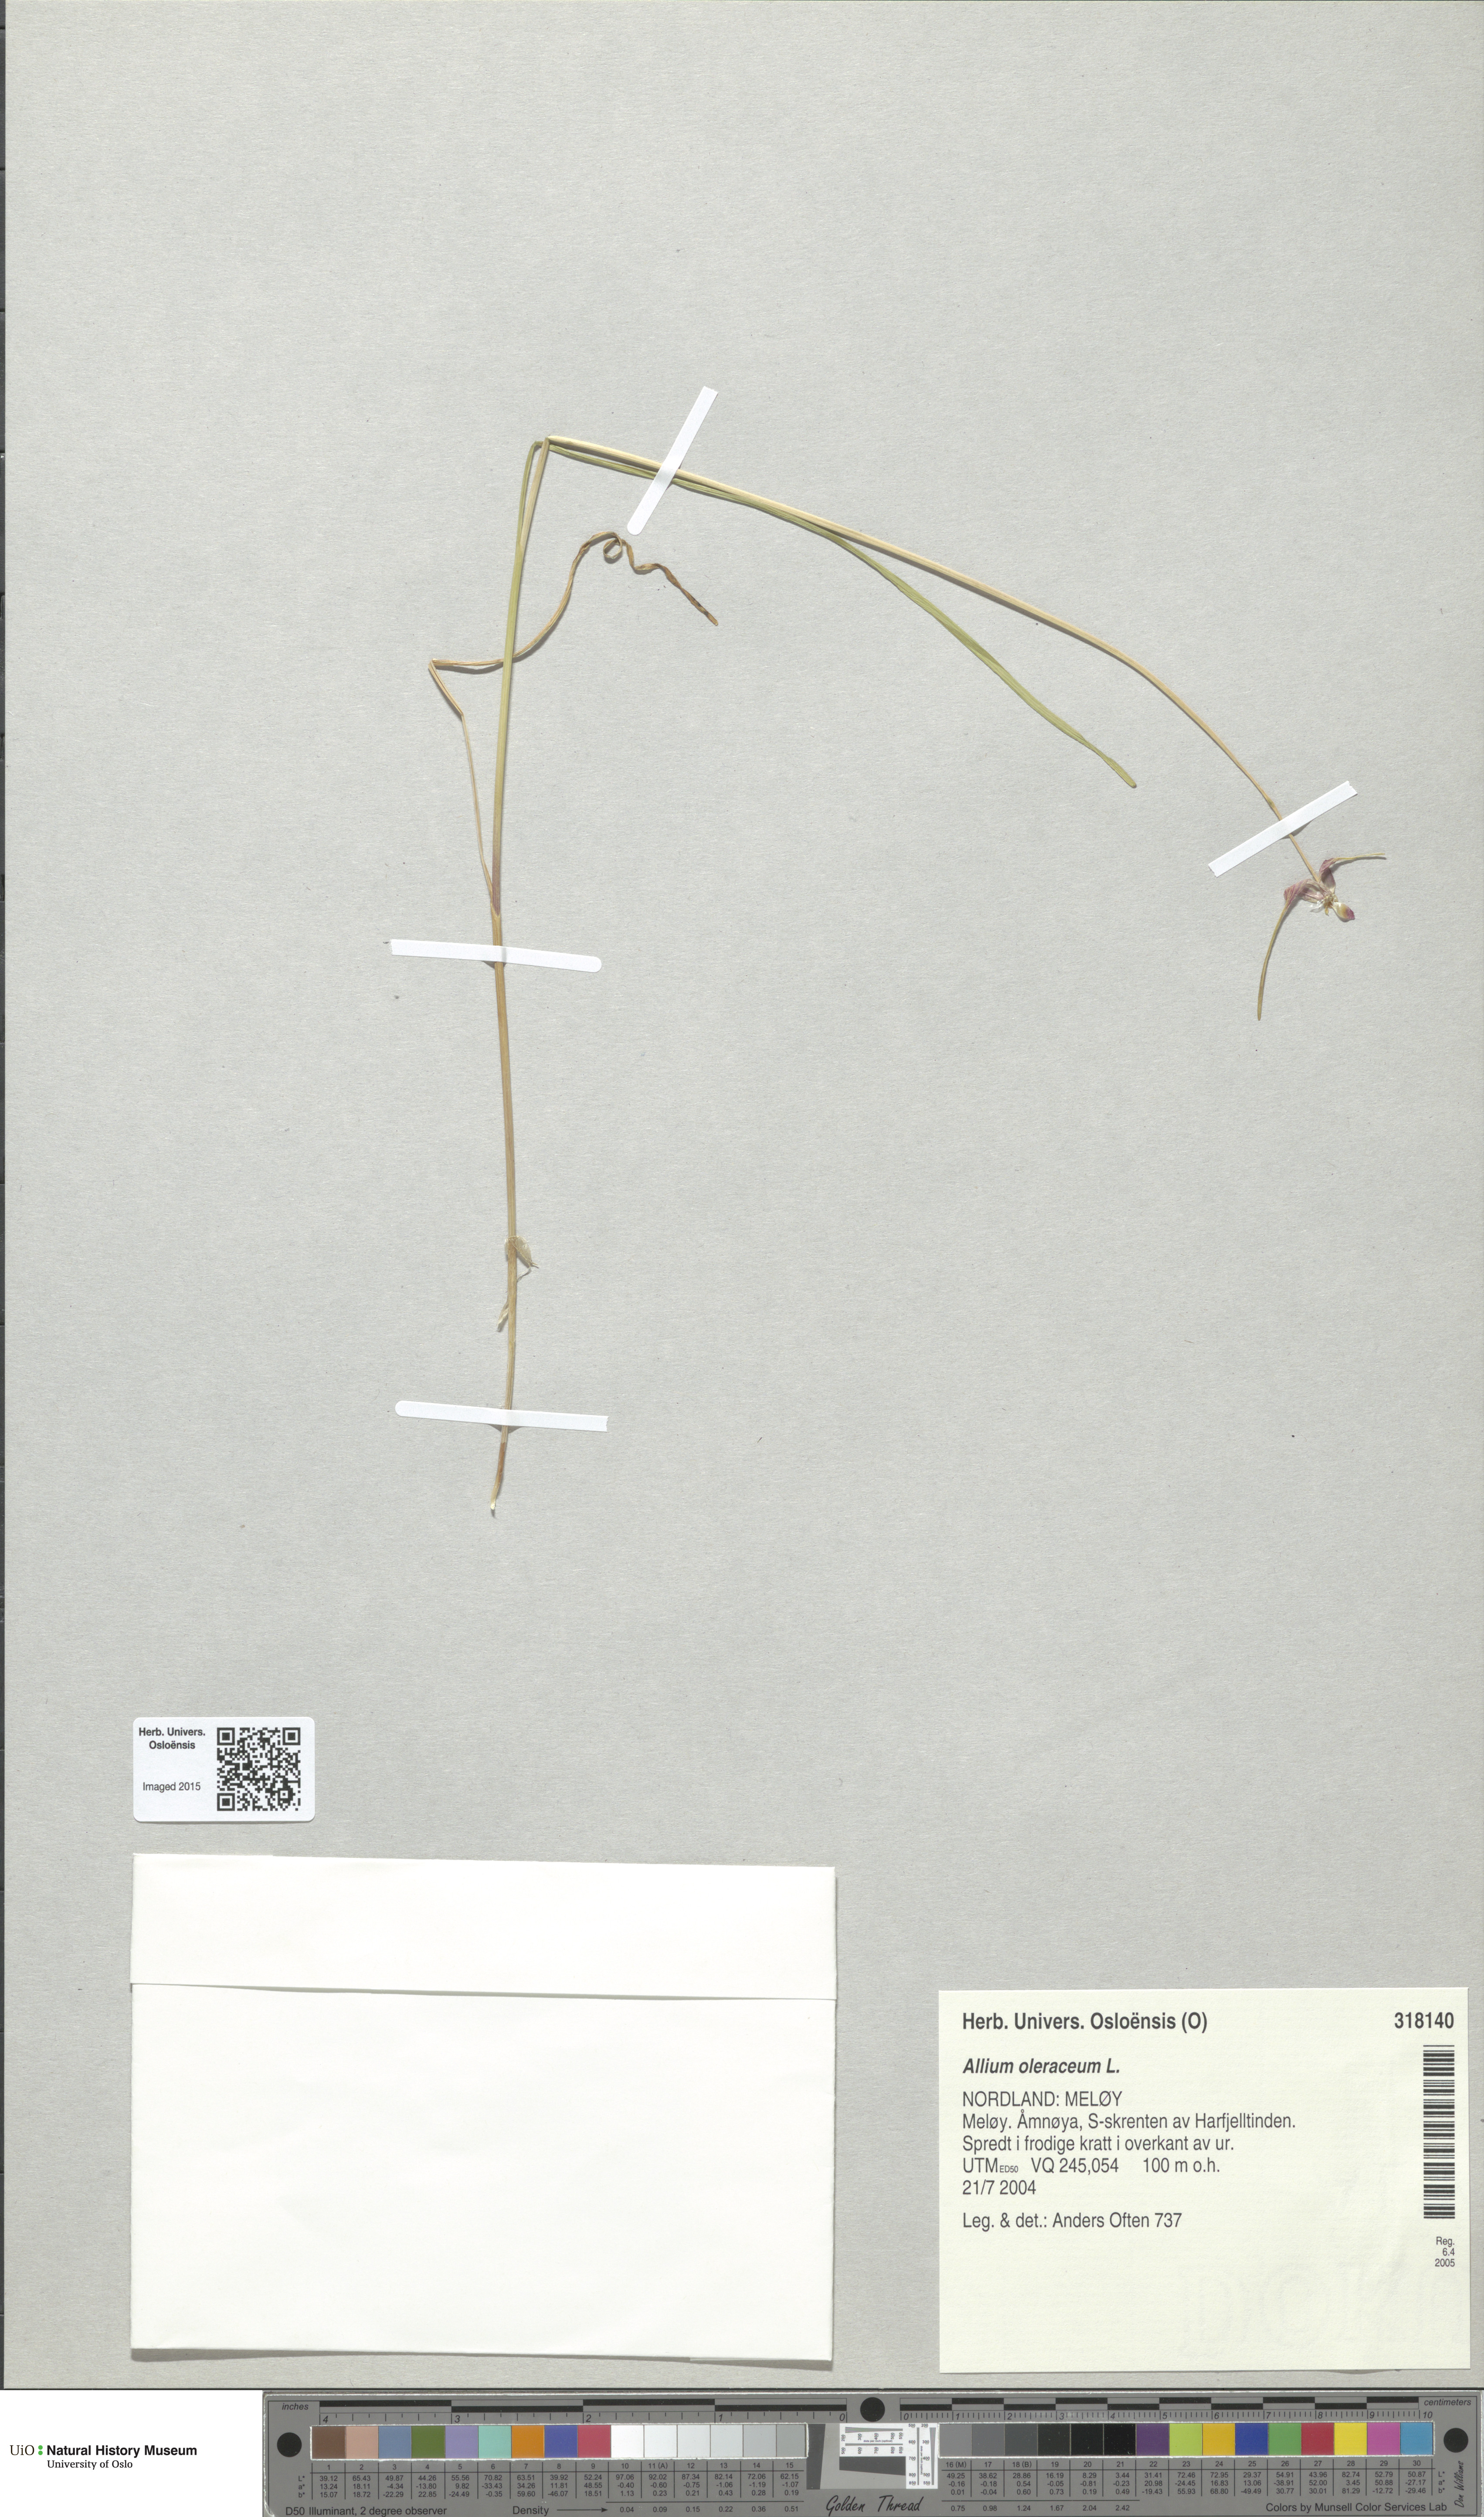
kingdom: Plantae
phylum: Tracheophyta
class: Liliopsida
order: Asparagales
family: Amaryllidaceae
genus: Allium
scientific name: Allium oleraceum
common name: Field garlic
